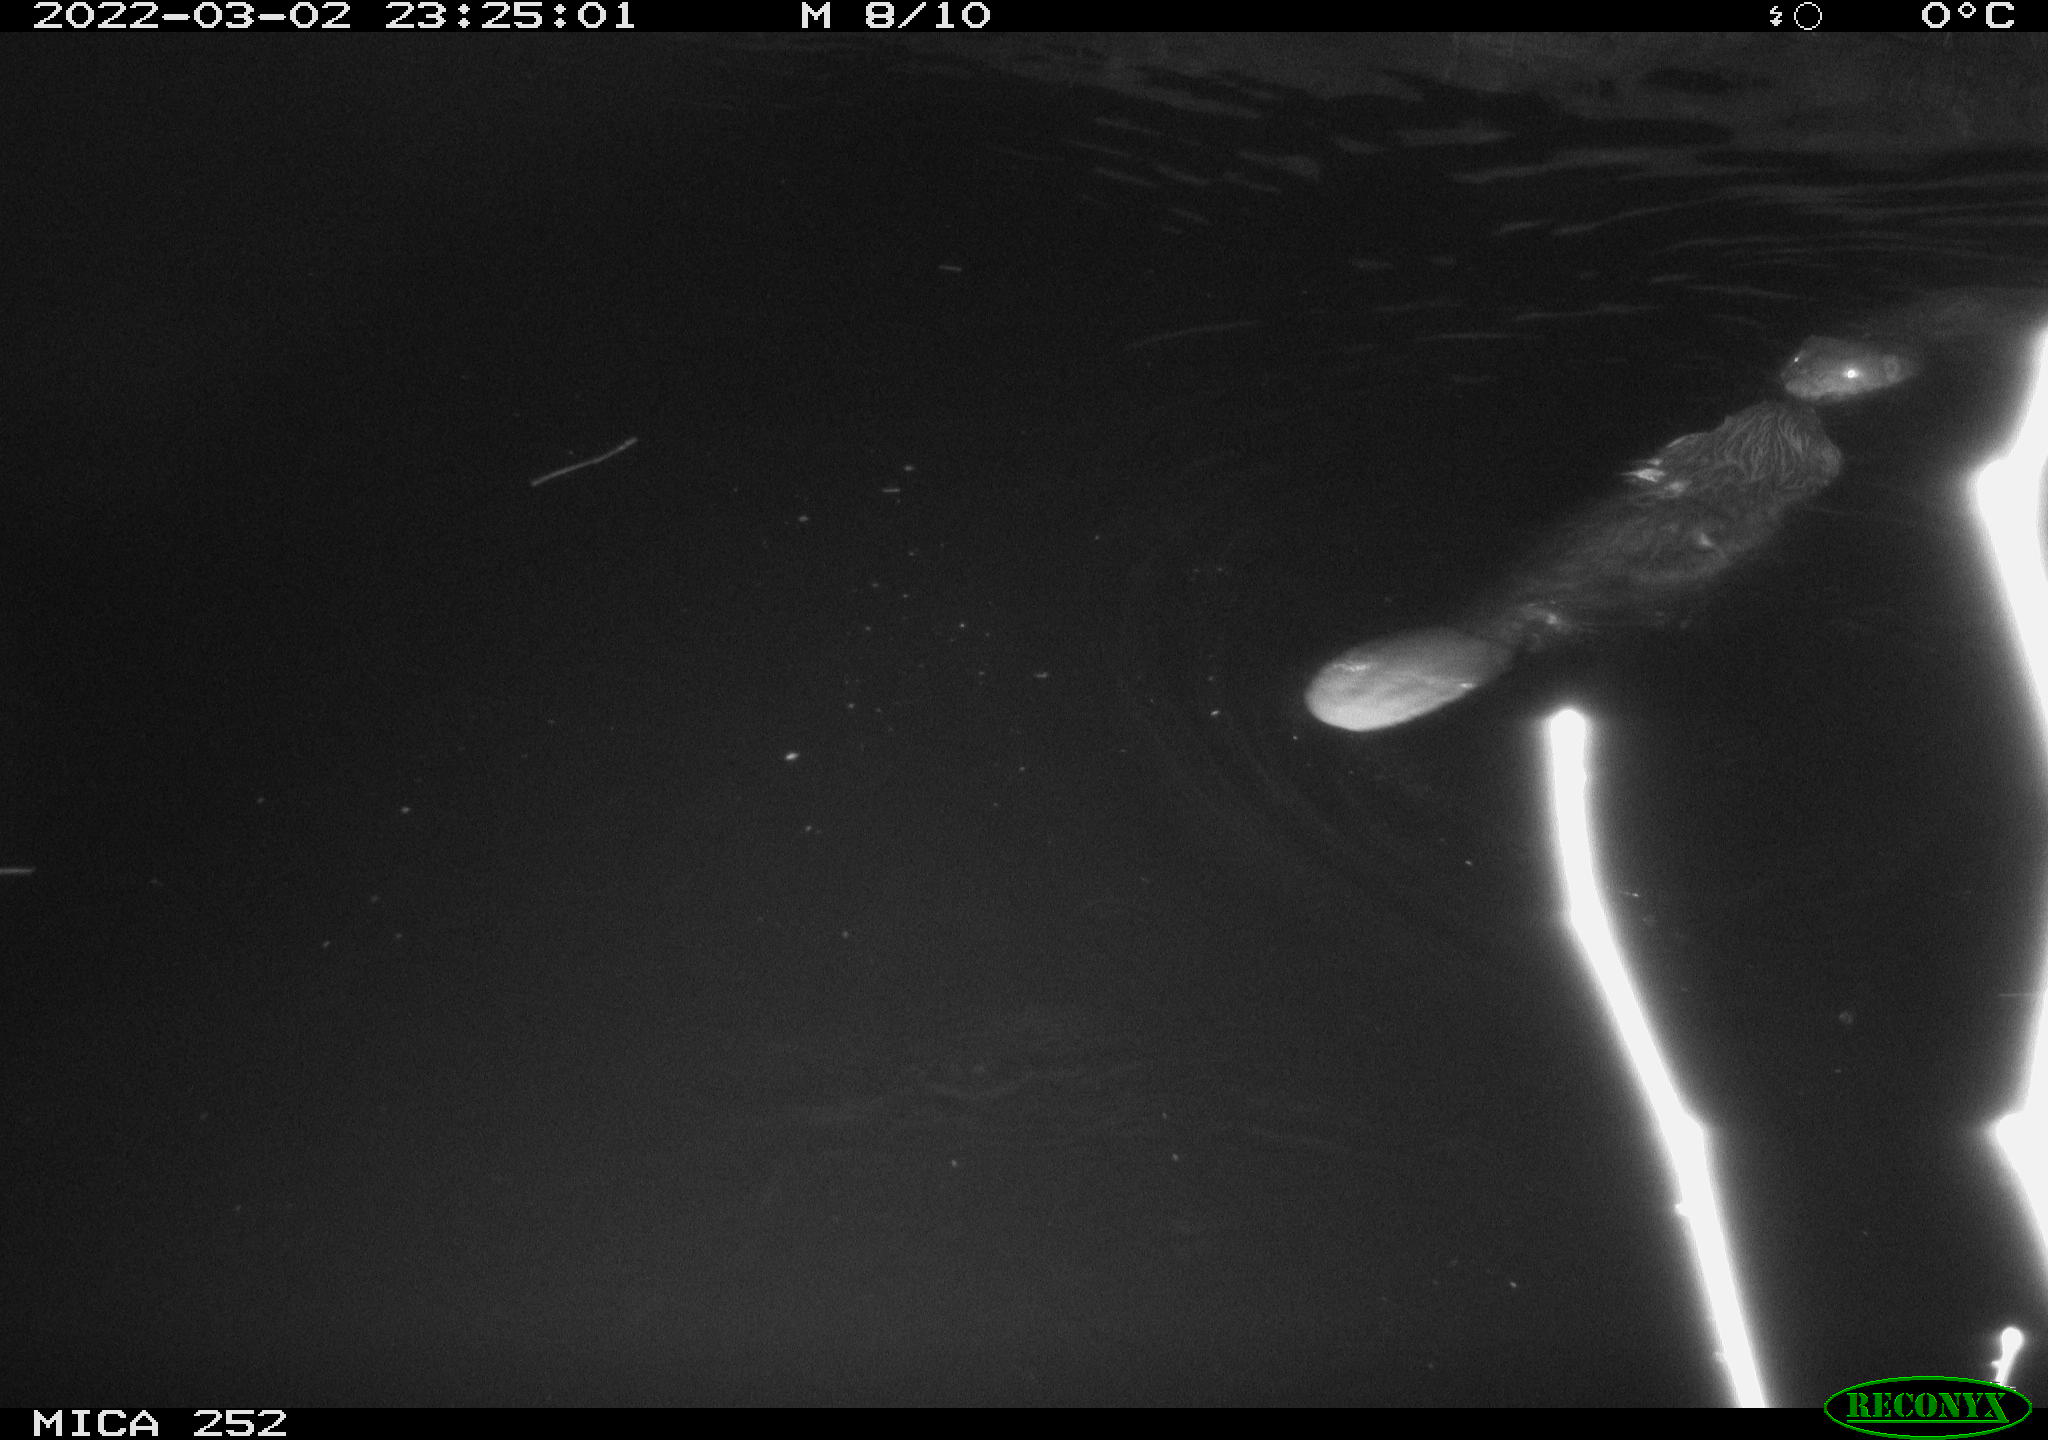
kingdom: Animalia
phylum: Chordata
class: Mammalia
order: Rodentia
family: Castoridae
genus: Castor
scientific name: Castor fiber
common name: Eurasian beaver
